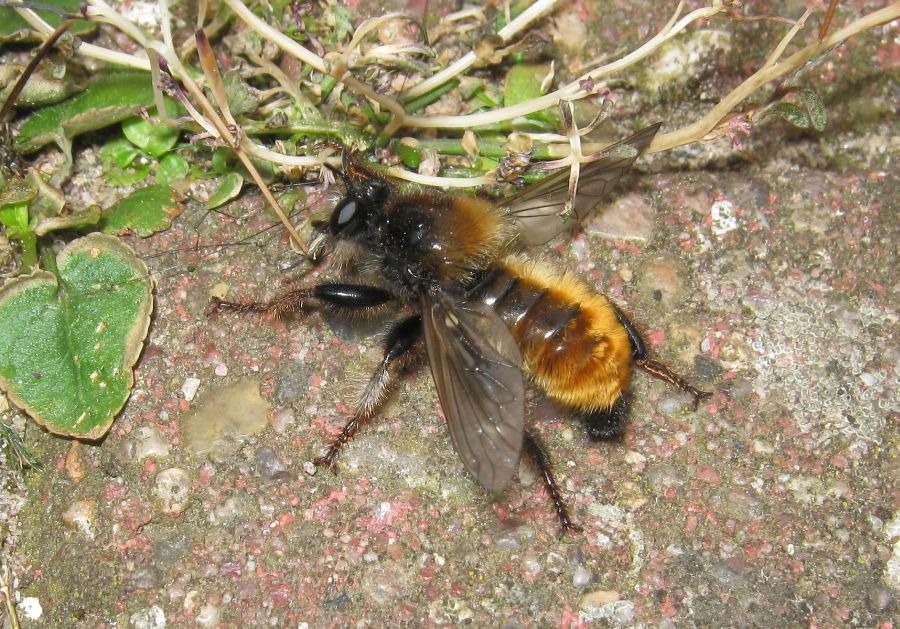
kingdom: Animalia
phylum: Arthropoda
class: Insecta
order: Diptera
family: Asilidae
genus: Laphria
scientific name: Laphria flava
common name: Gul vedrovflue
